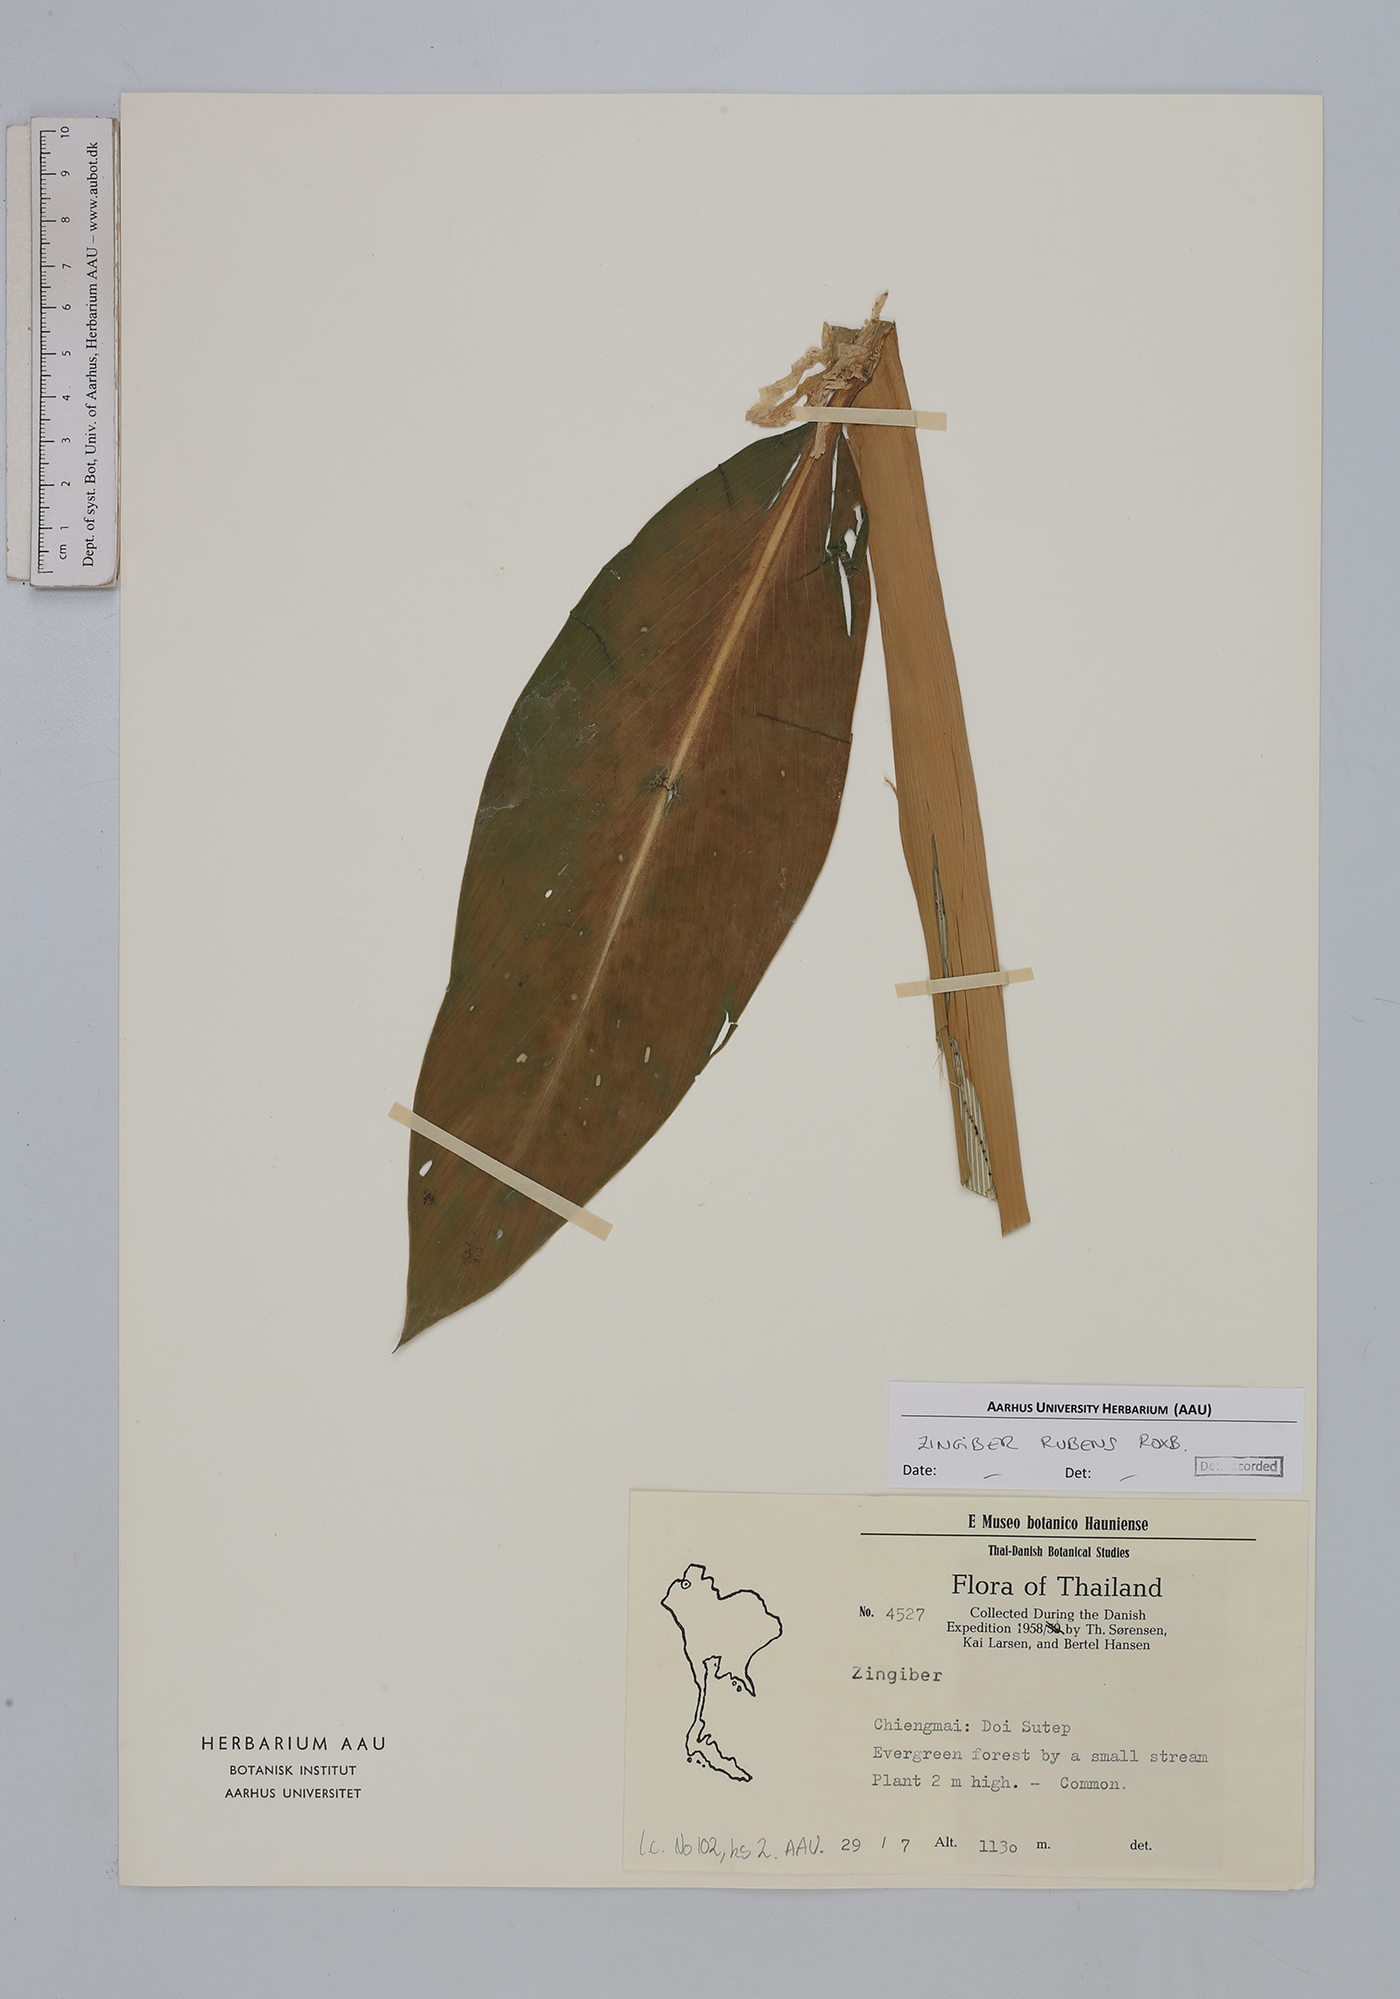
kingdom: Plantae
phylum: Tracheophyta
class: Liliopsida
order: Zingiberales
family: Zingiberaceae
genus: Zingiber
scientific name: Zingiber rubens
